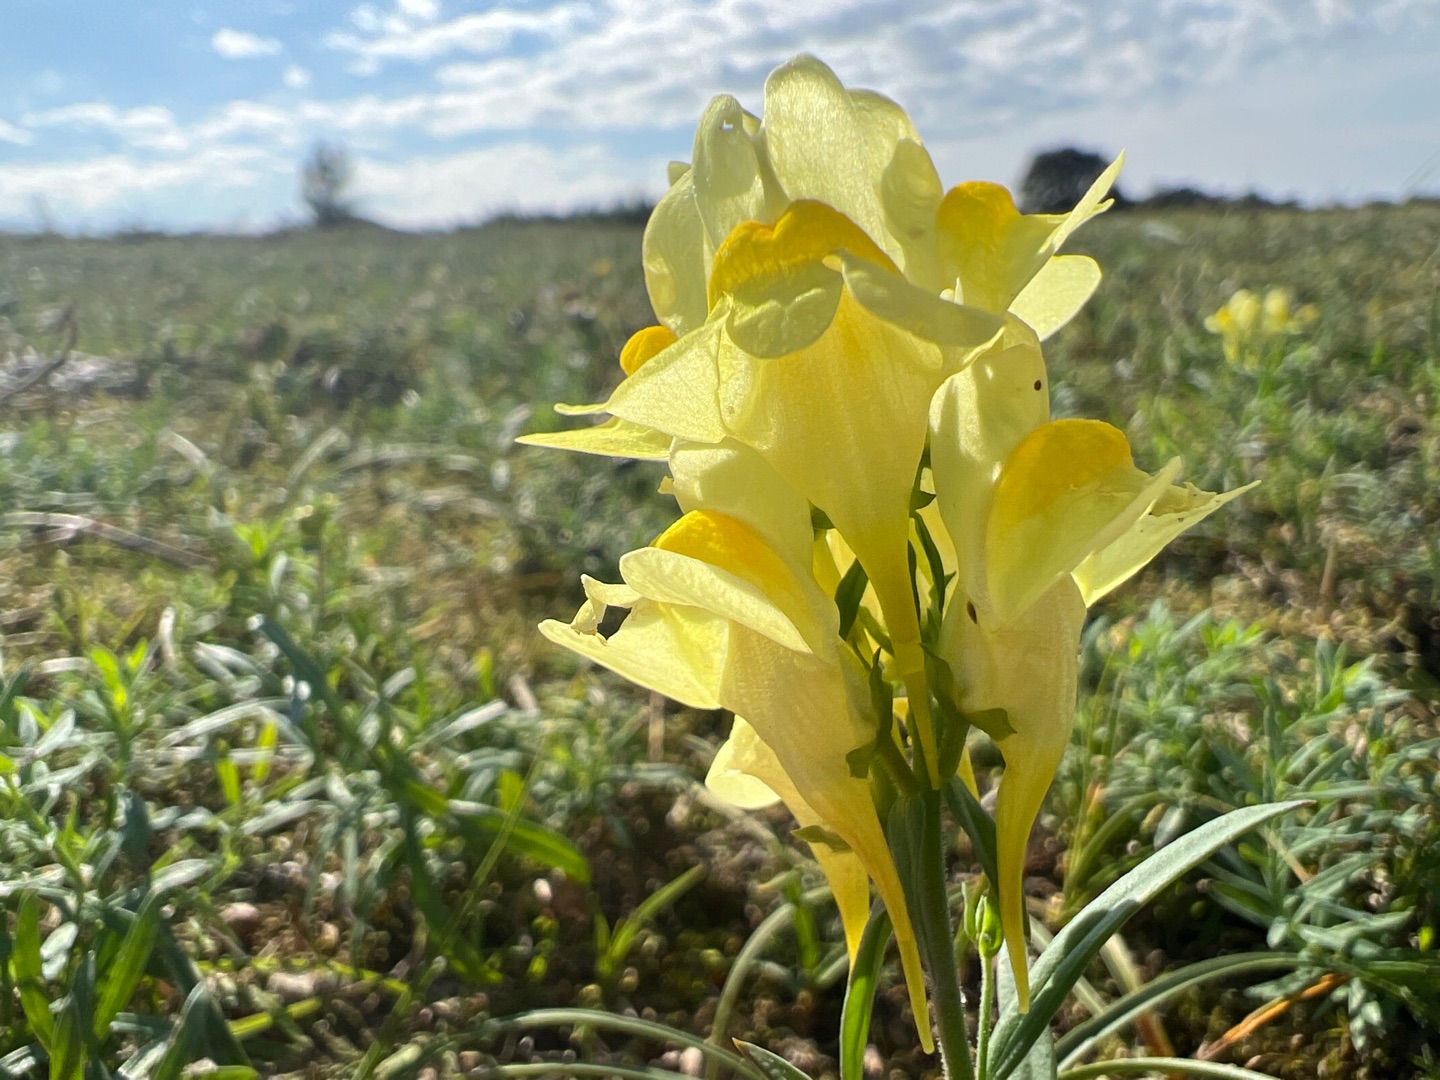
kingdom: Plantae
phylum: Tracheophyta
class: Magnoliopsida
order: Lamiales
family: Plantaginaceae
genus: Linaria
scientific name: Linaria vulgaris
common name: Almindelig torskemund
